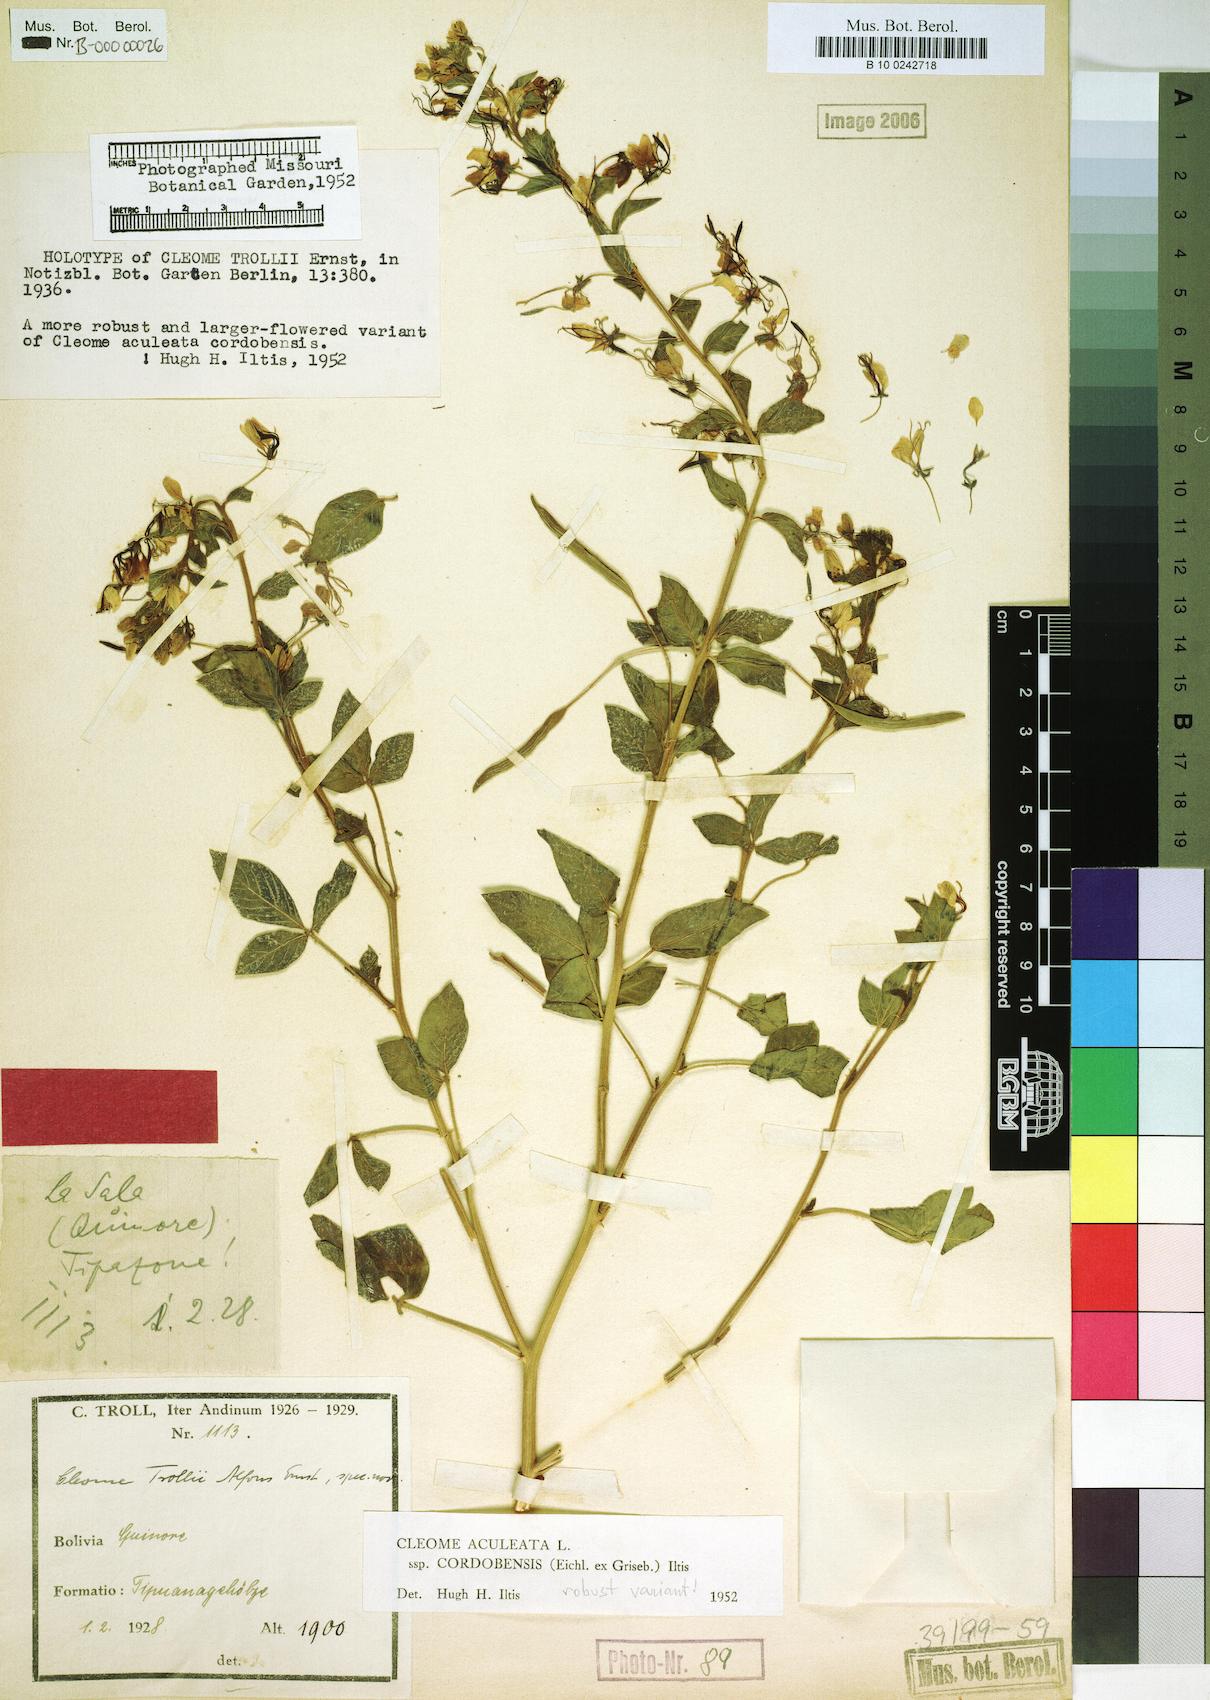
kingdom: Plantae
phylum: Tracheophyta
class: Magnoliopsida
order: Brassicales
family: Cleomaceae
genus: Tarenaya
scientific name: Tarenaya aculeata
